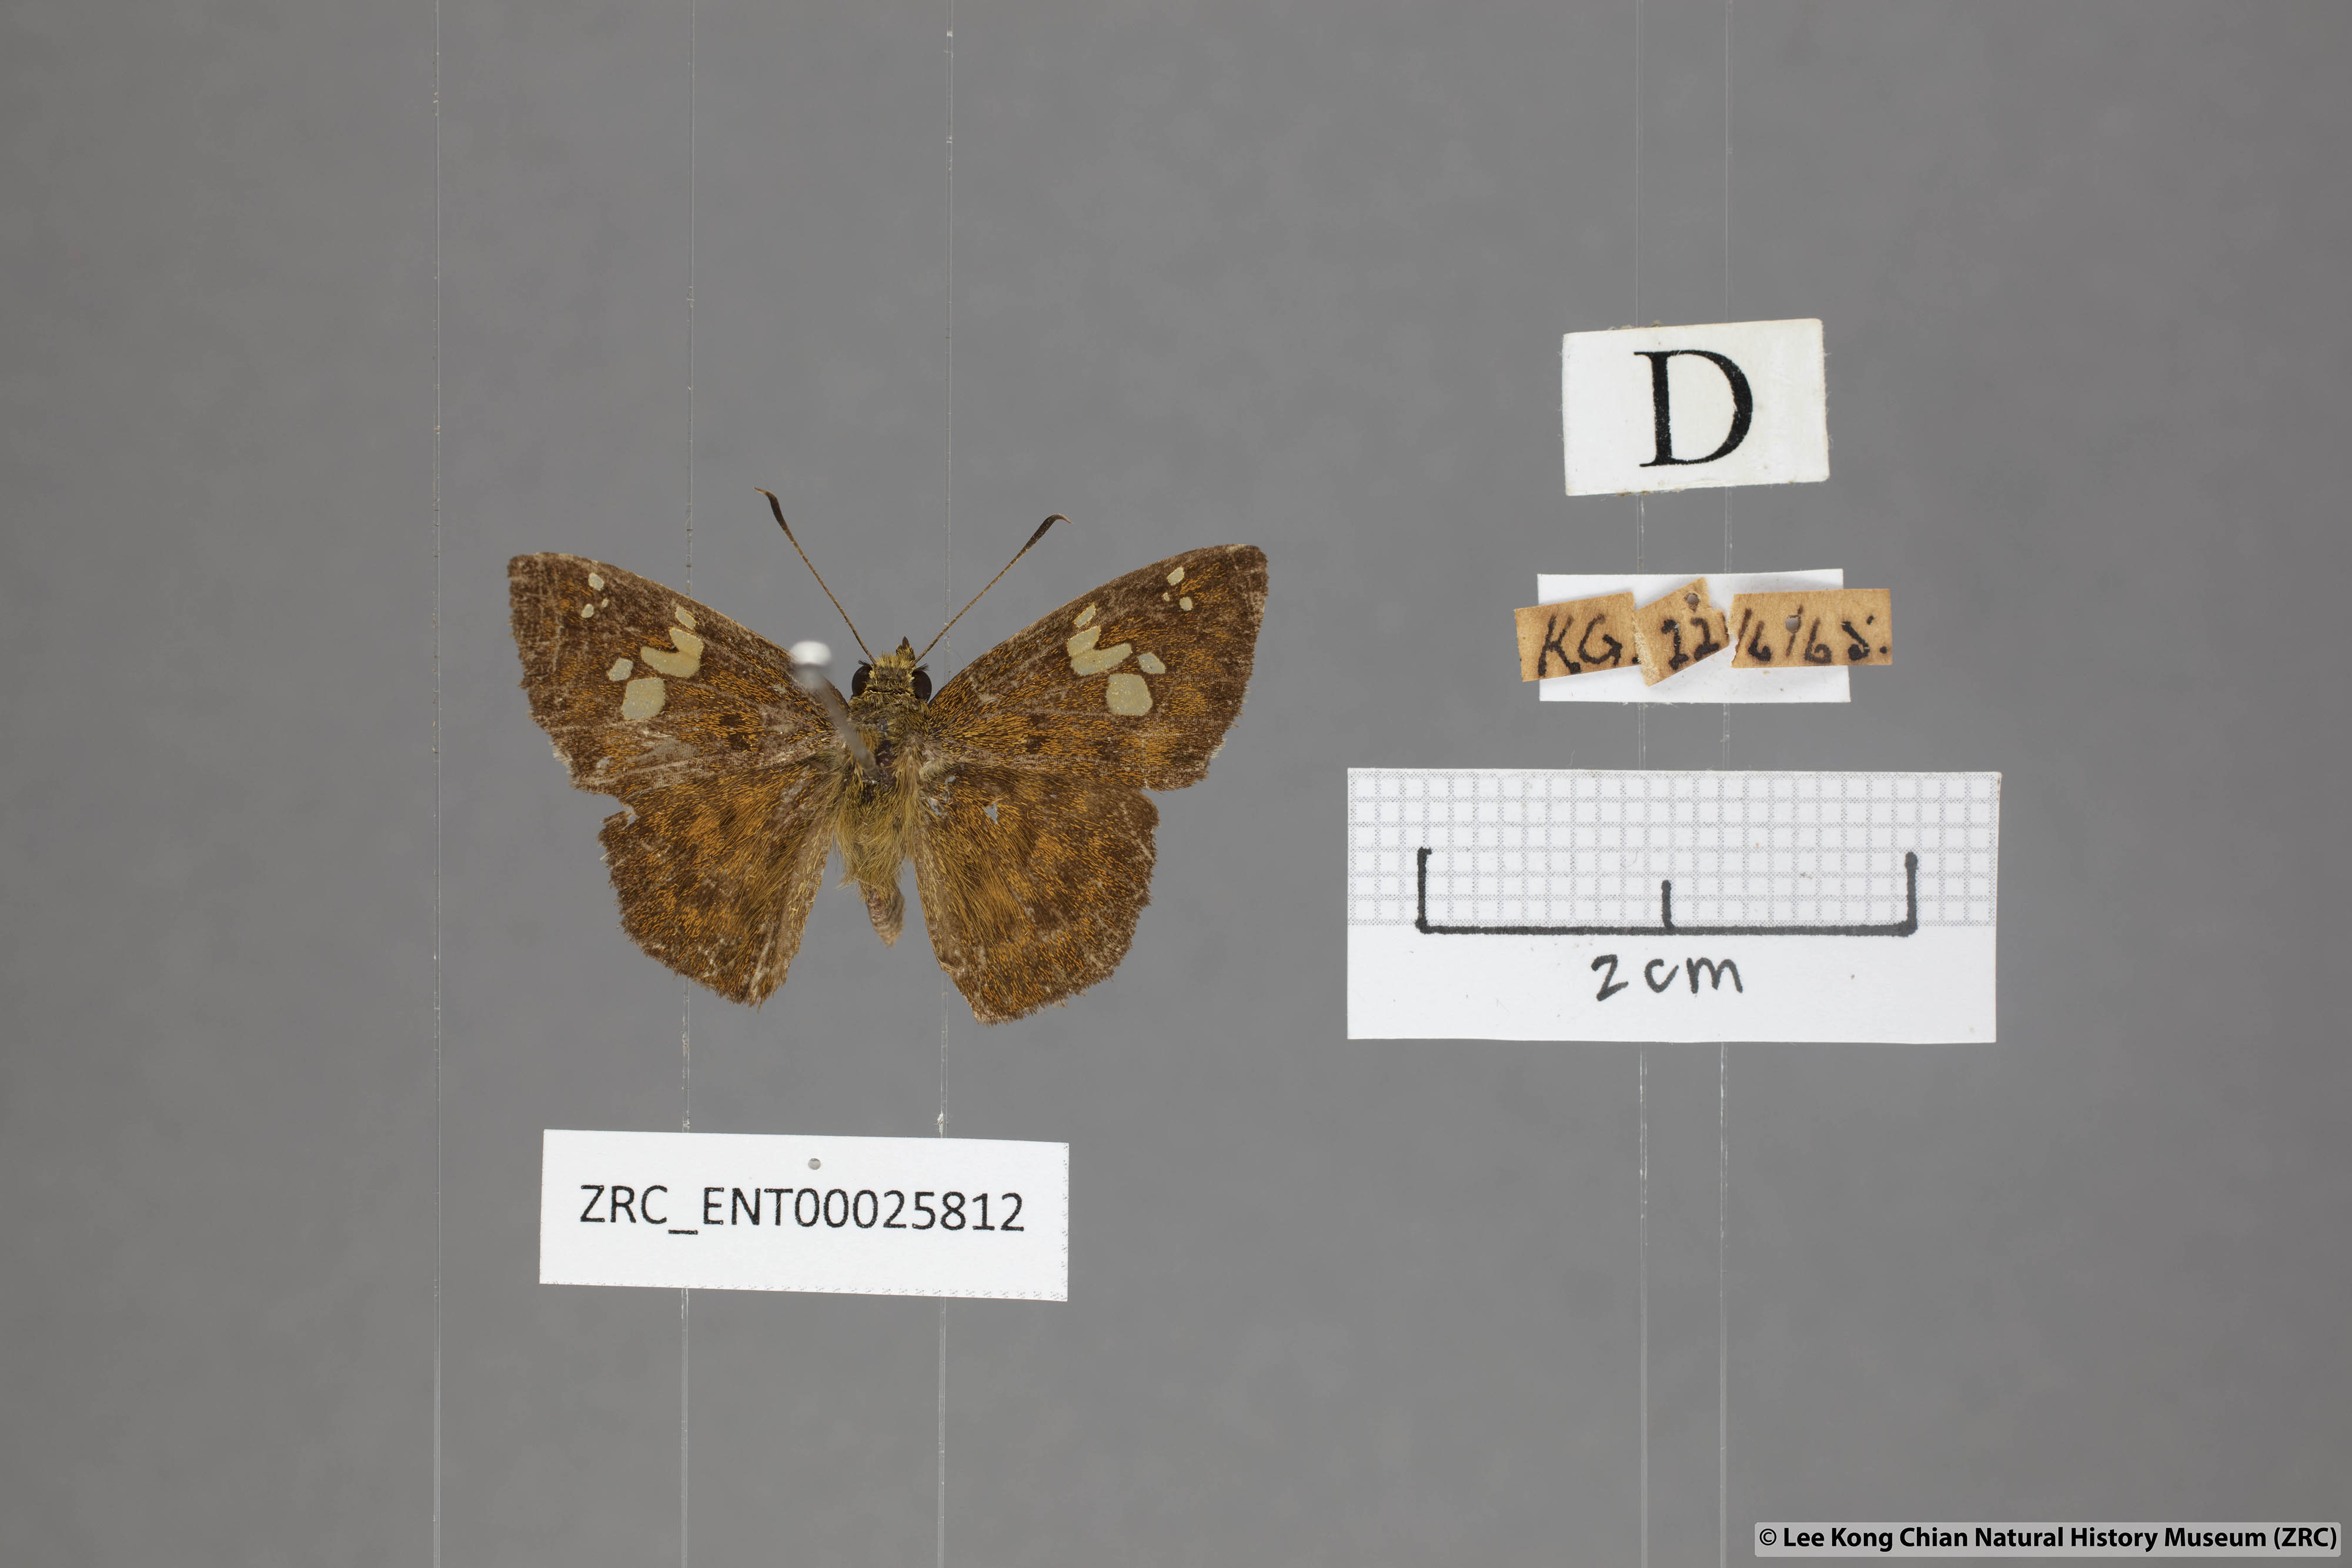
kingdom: Animalia
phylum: Arthropoda
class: Insecta
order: Lepidoptera
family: Hesperiidae
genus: Pseudocoladenia
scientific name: Pseudocoladenia dan
